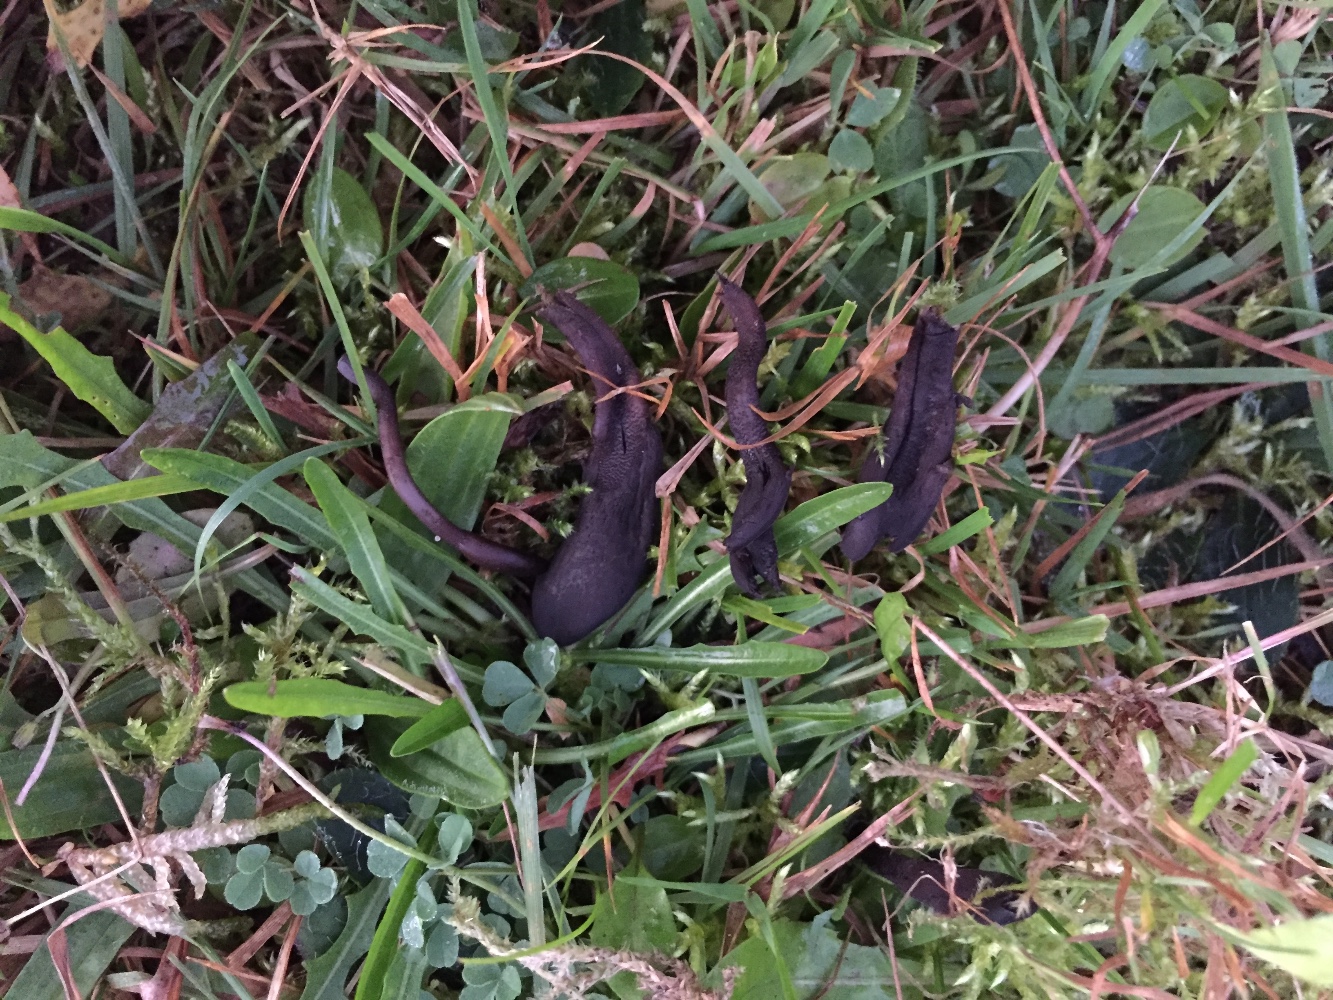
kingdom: Fungi
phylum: Ascomycota
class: Geoglossomycetes
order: Geoglossales
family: Geoglossaceae
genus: Geoglossum
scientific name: Geoglossum
